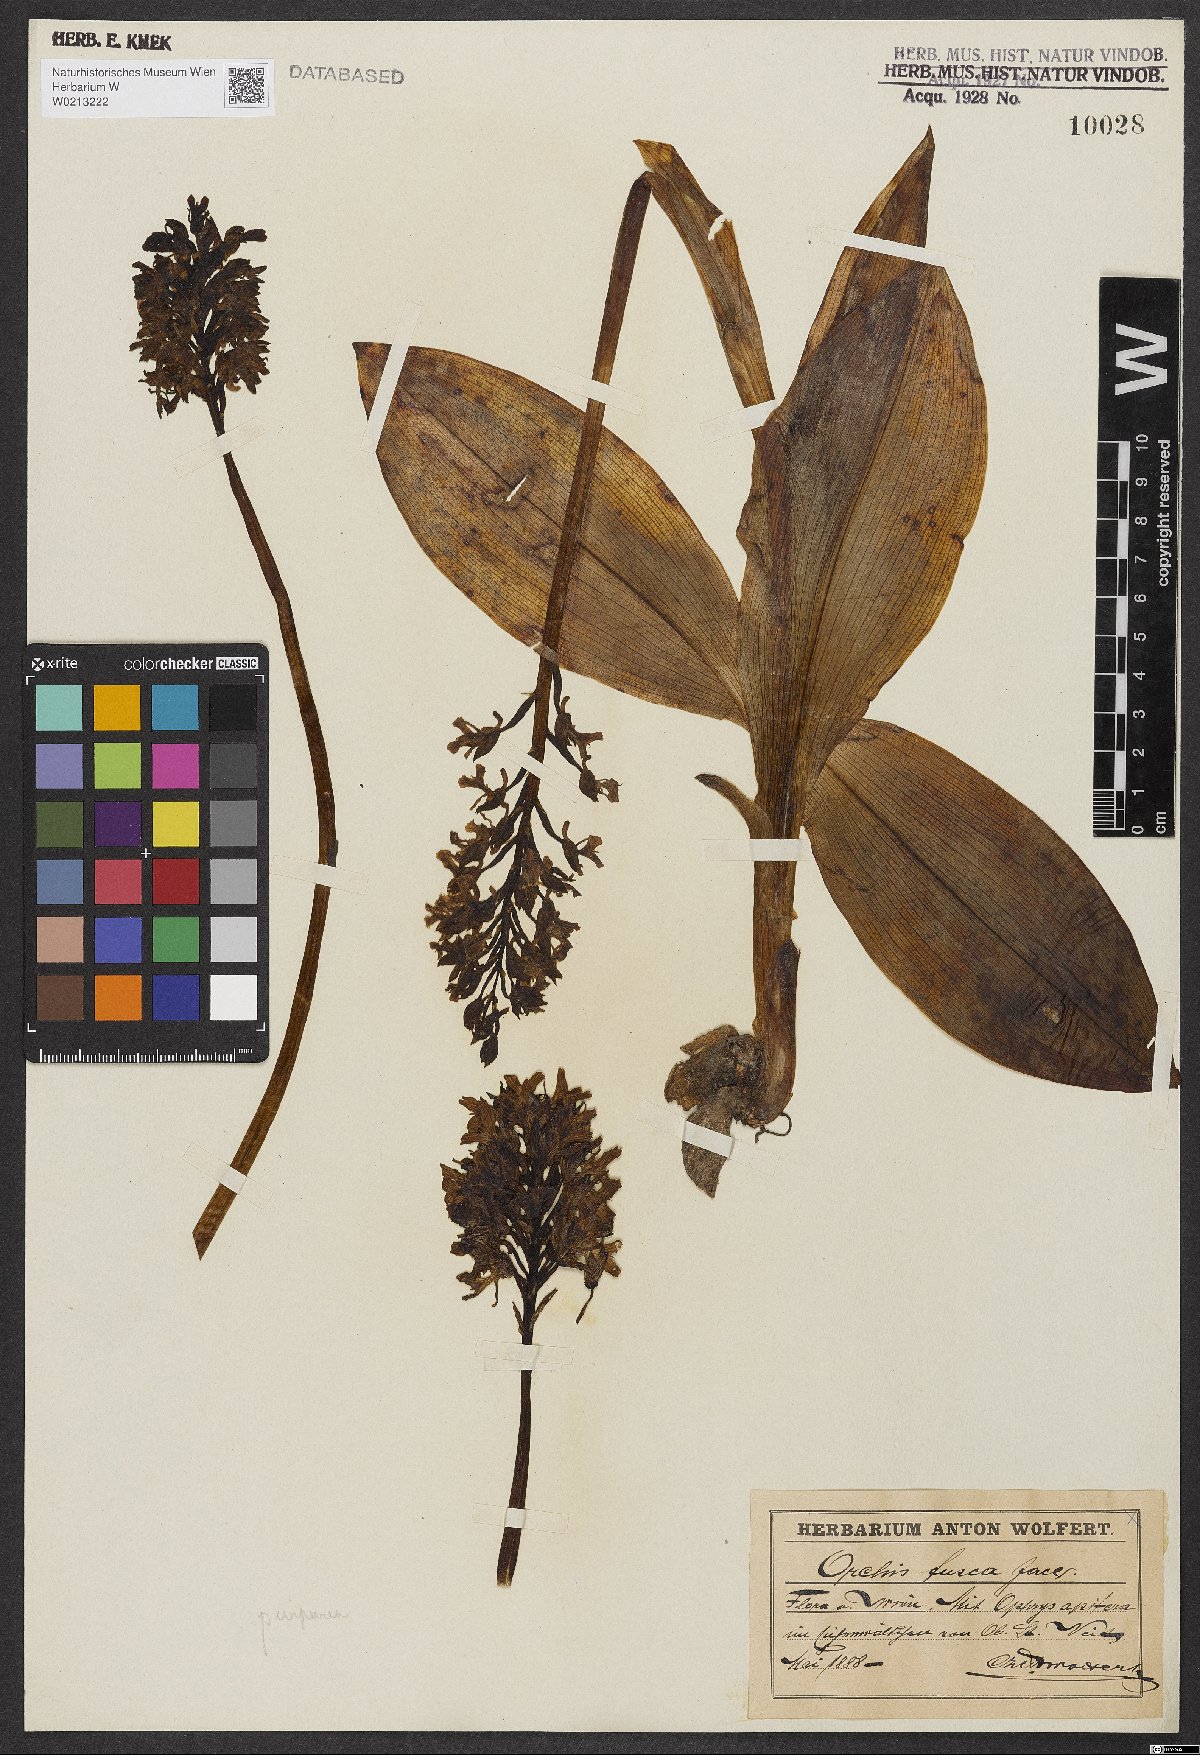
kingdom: Plantae
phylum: Tracheophyta
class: Liliopsida
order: Asparagales
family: Orchidaceae
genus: Orchis
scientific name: Orchis purpurea
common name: Lady orchid
